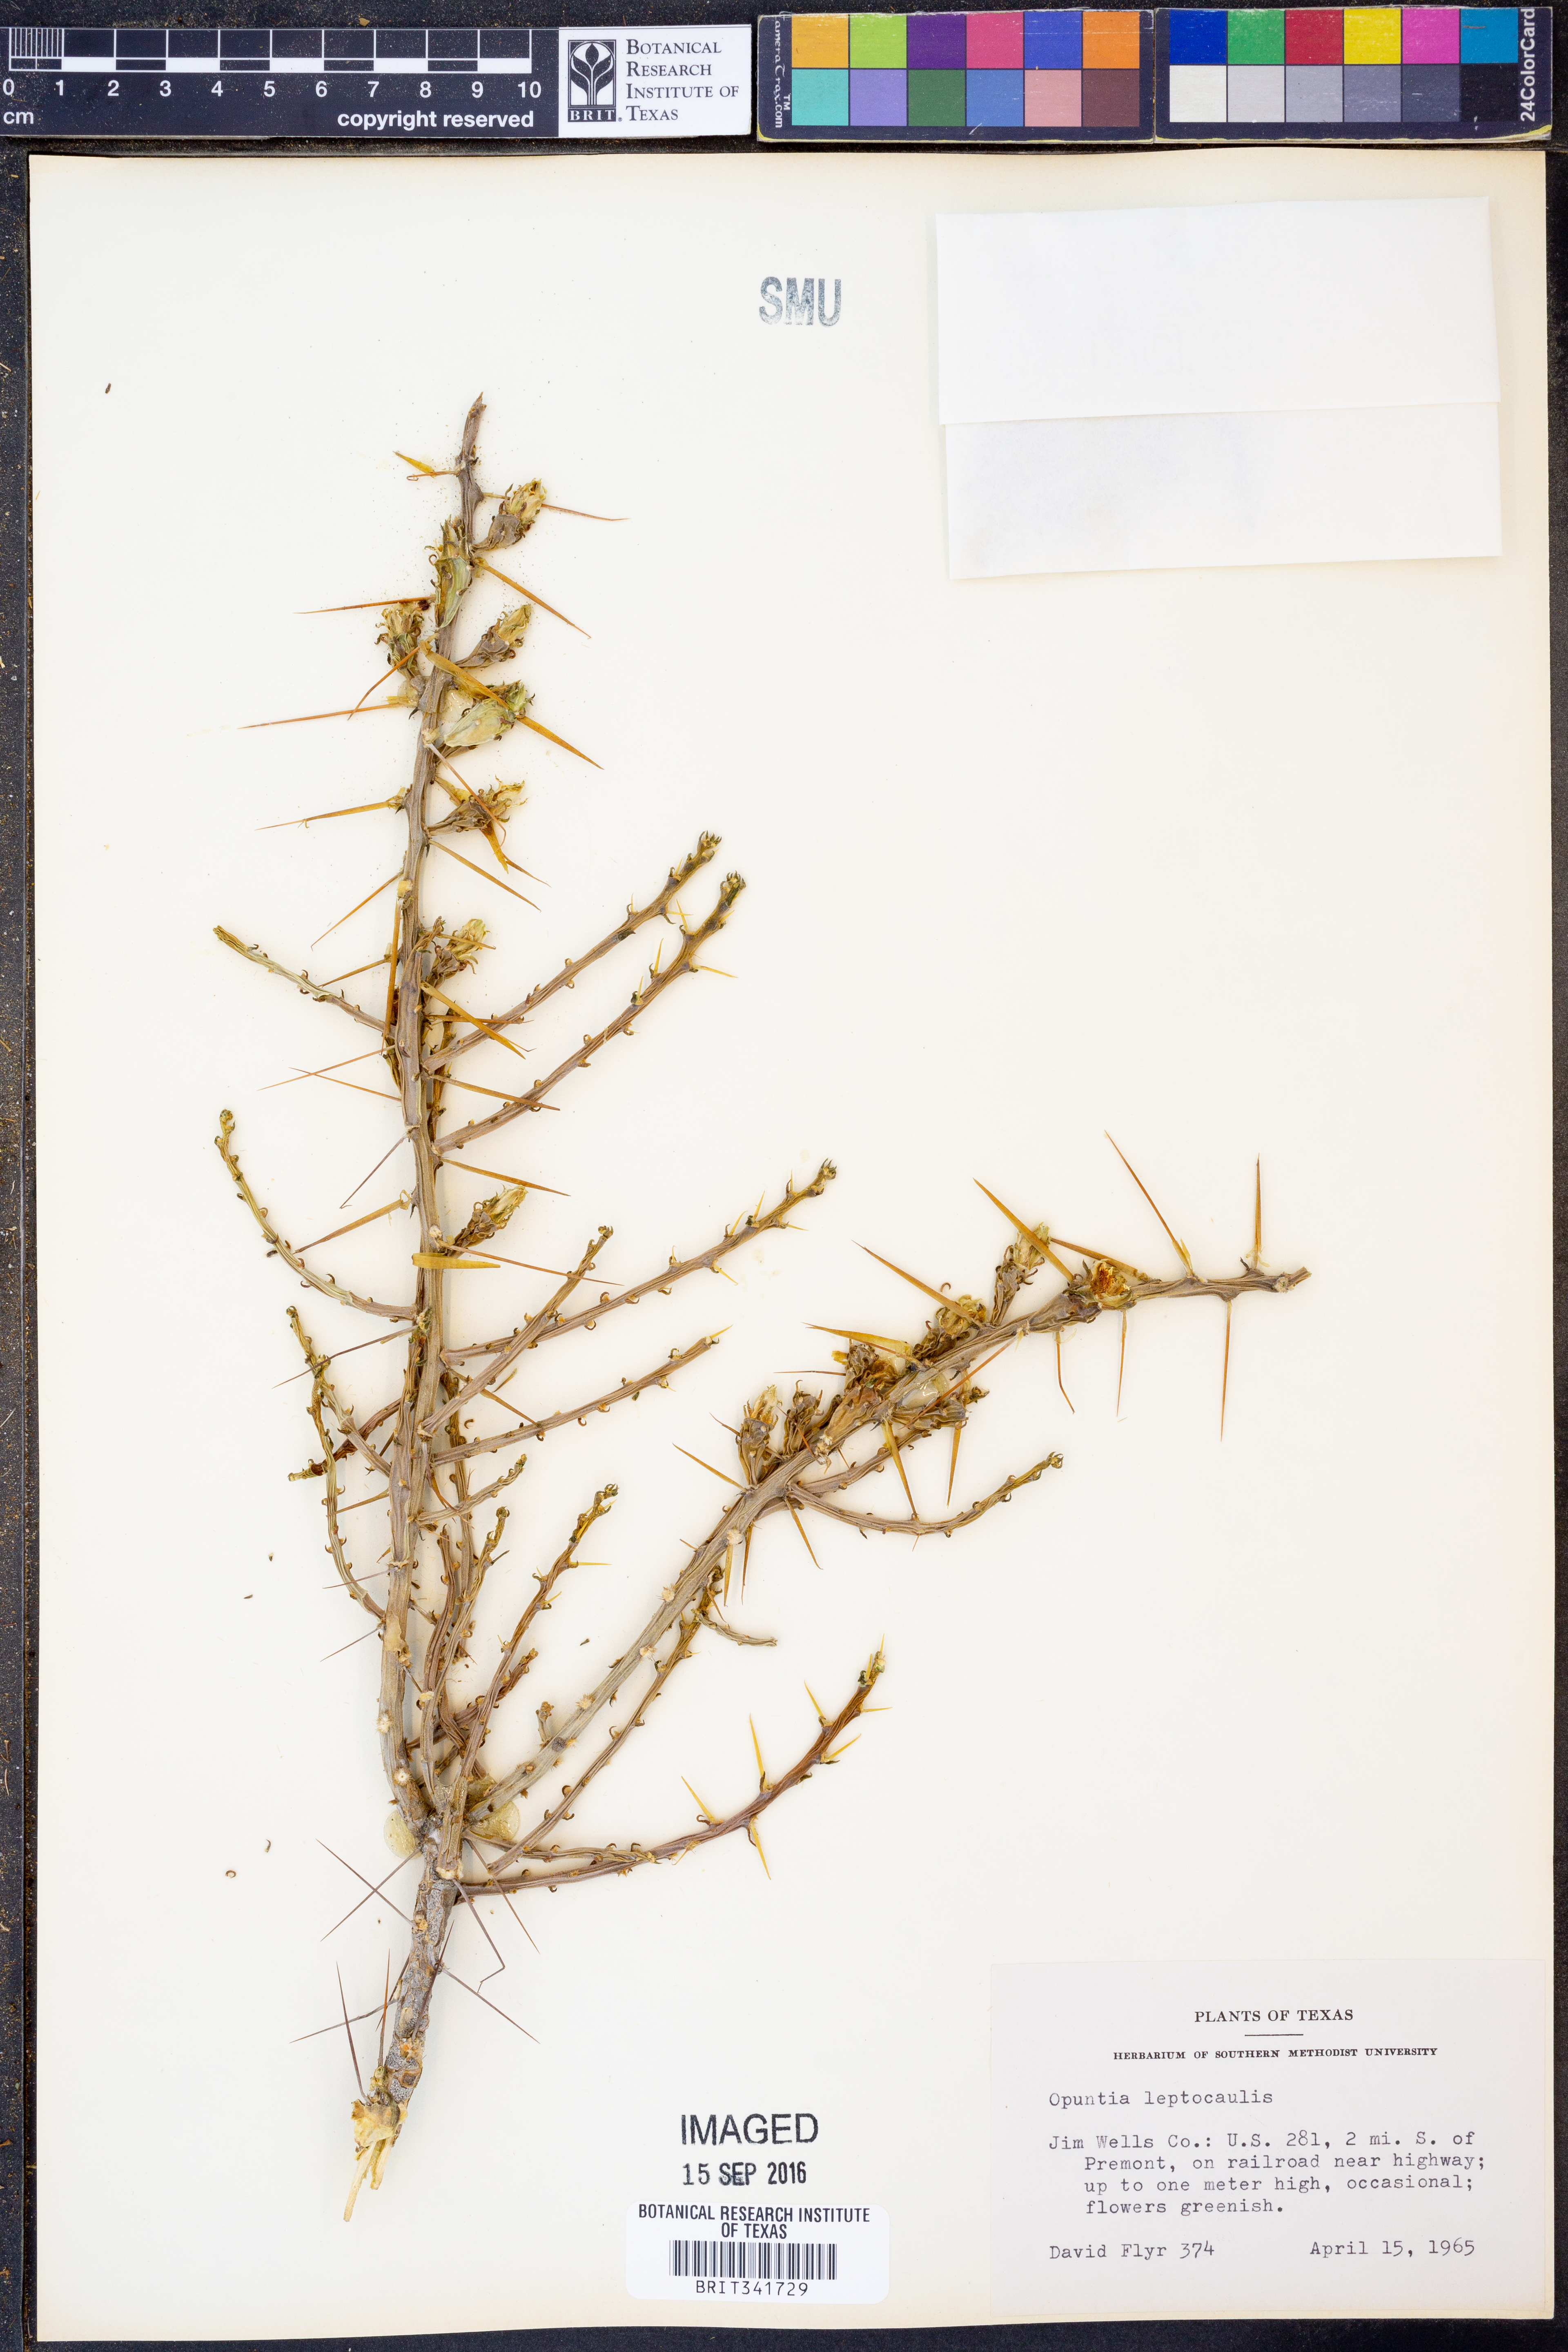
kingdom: Plantae
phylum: Tracheophyta
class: Magnoliopsida
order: Caryophyllales
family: Cactaceae
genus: Cylindropuntia
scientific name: Cylindropuntia leptocaulis
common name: Christmas cactus
